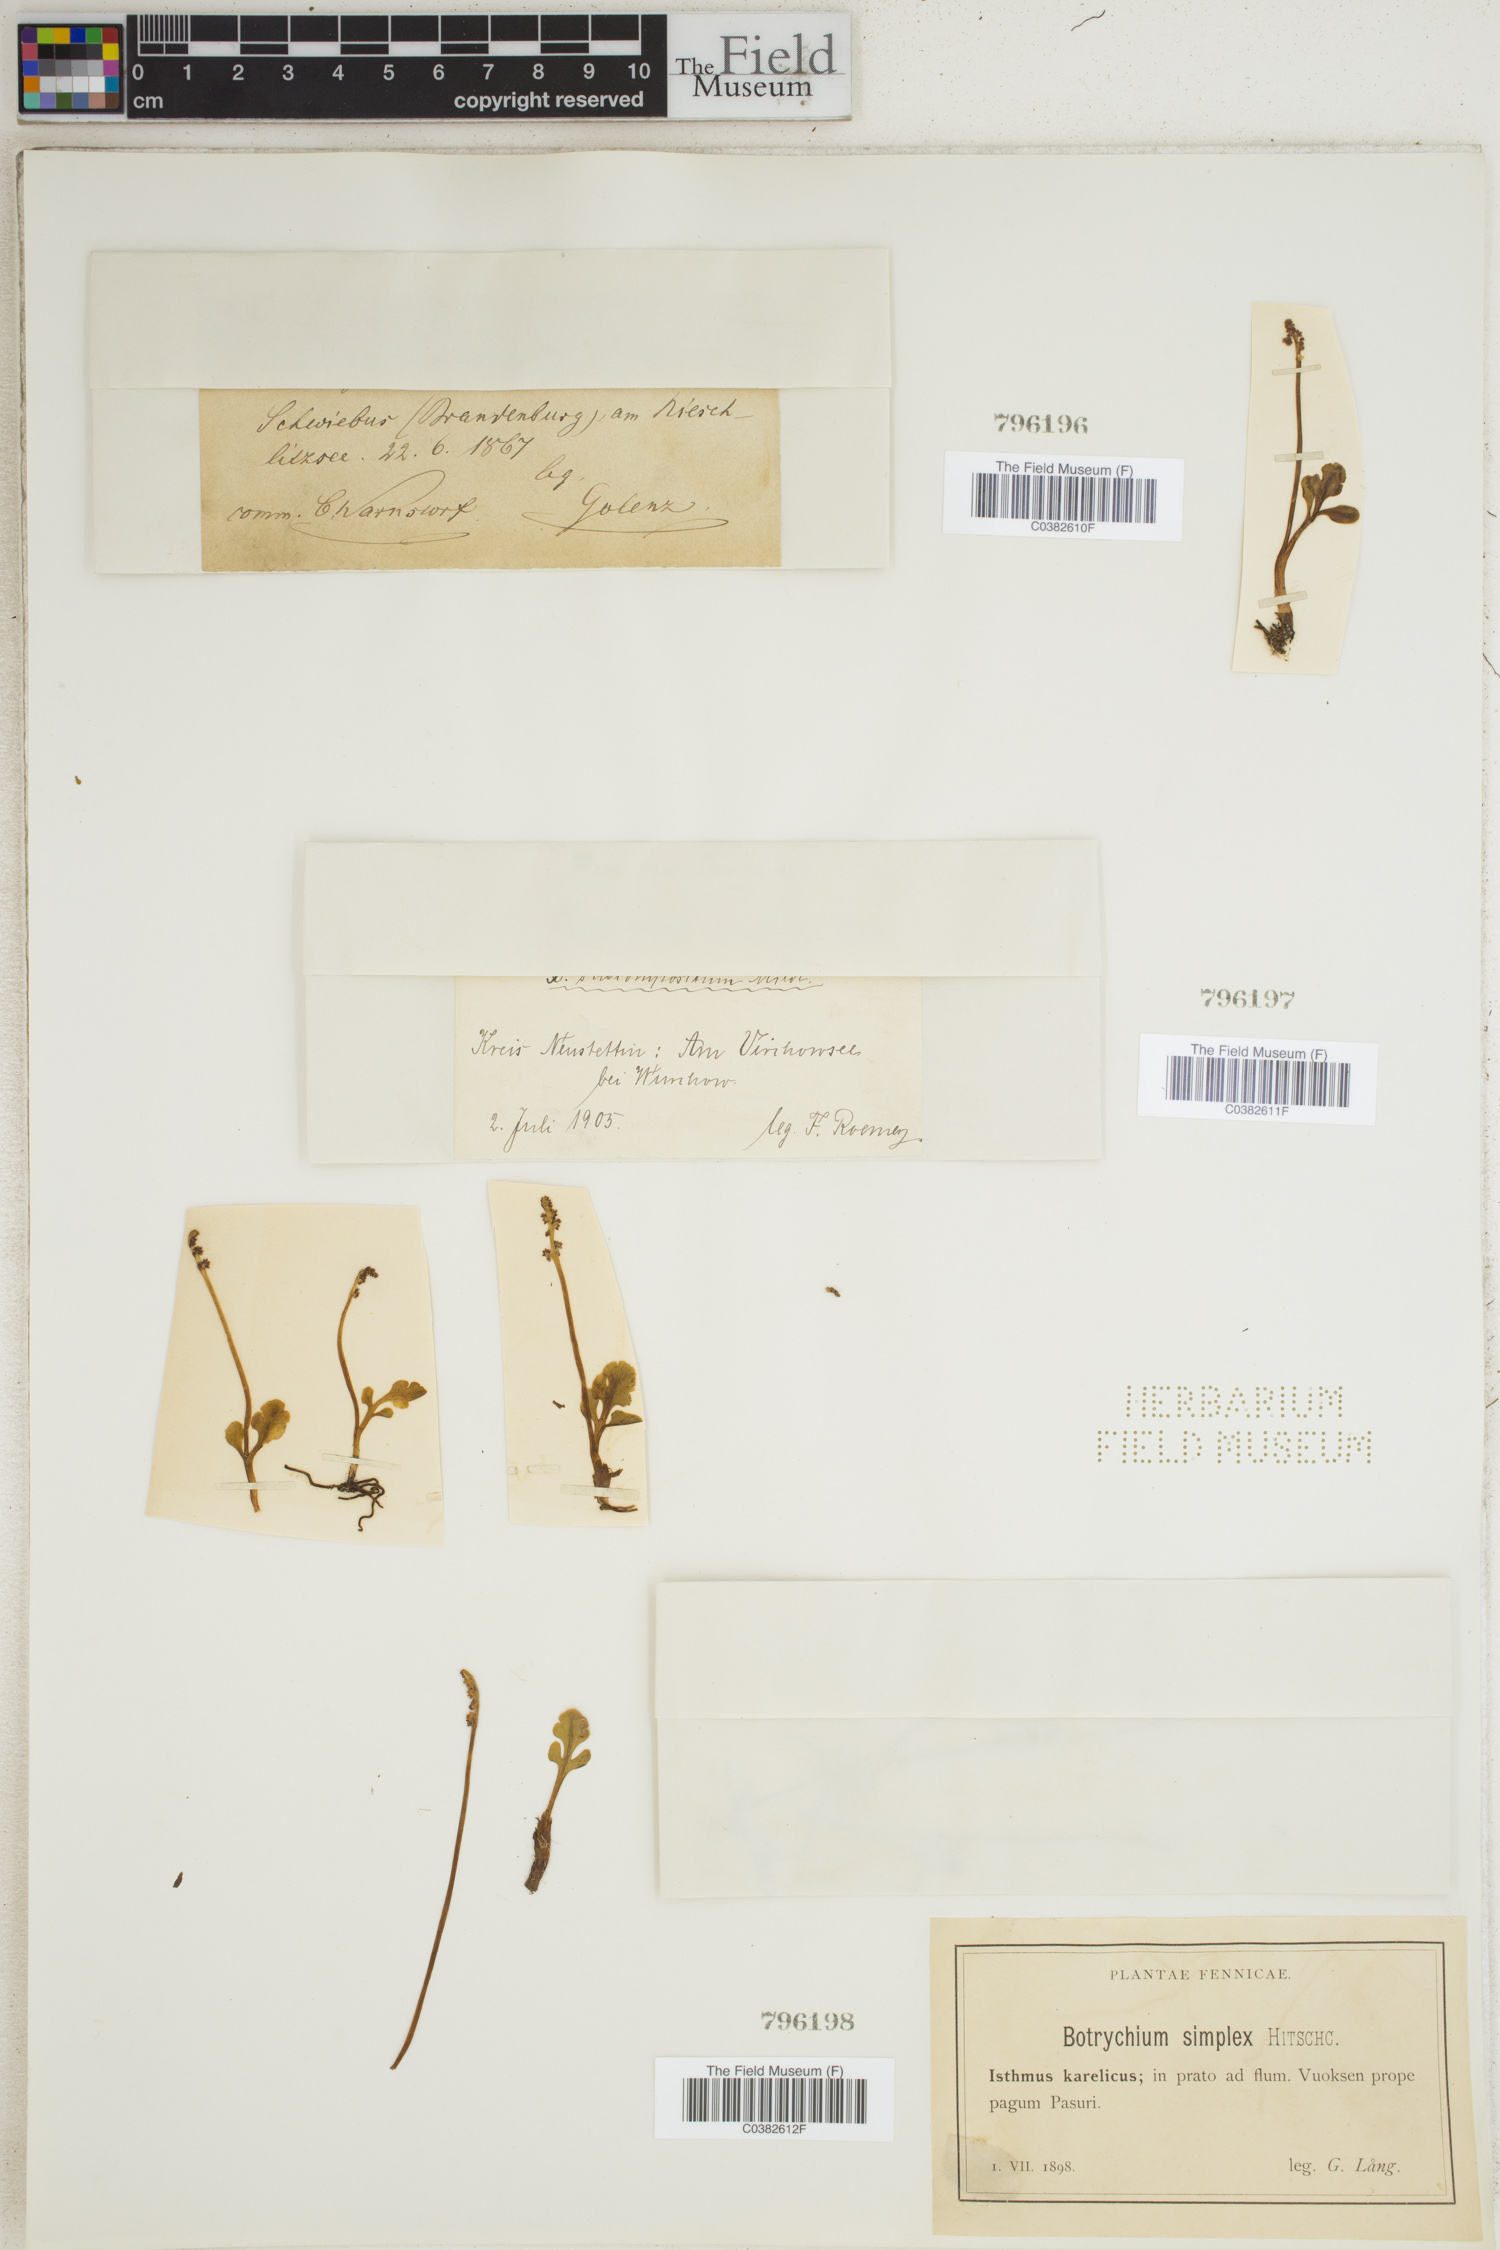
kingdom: Plantae
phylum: Tracheophyta
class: Polypodiopsida
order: Ophioglossales
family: Ophioglossaceae
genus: Botrychium
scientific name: Botrychium simplex
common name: Least moonwort
